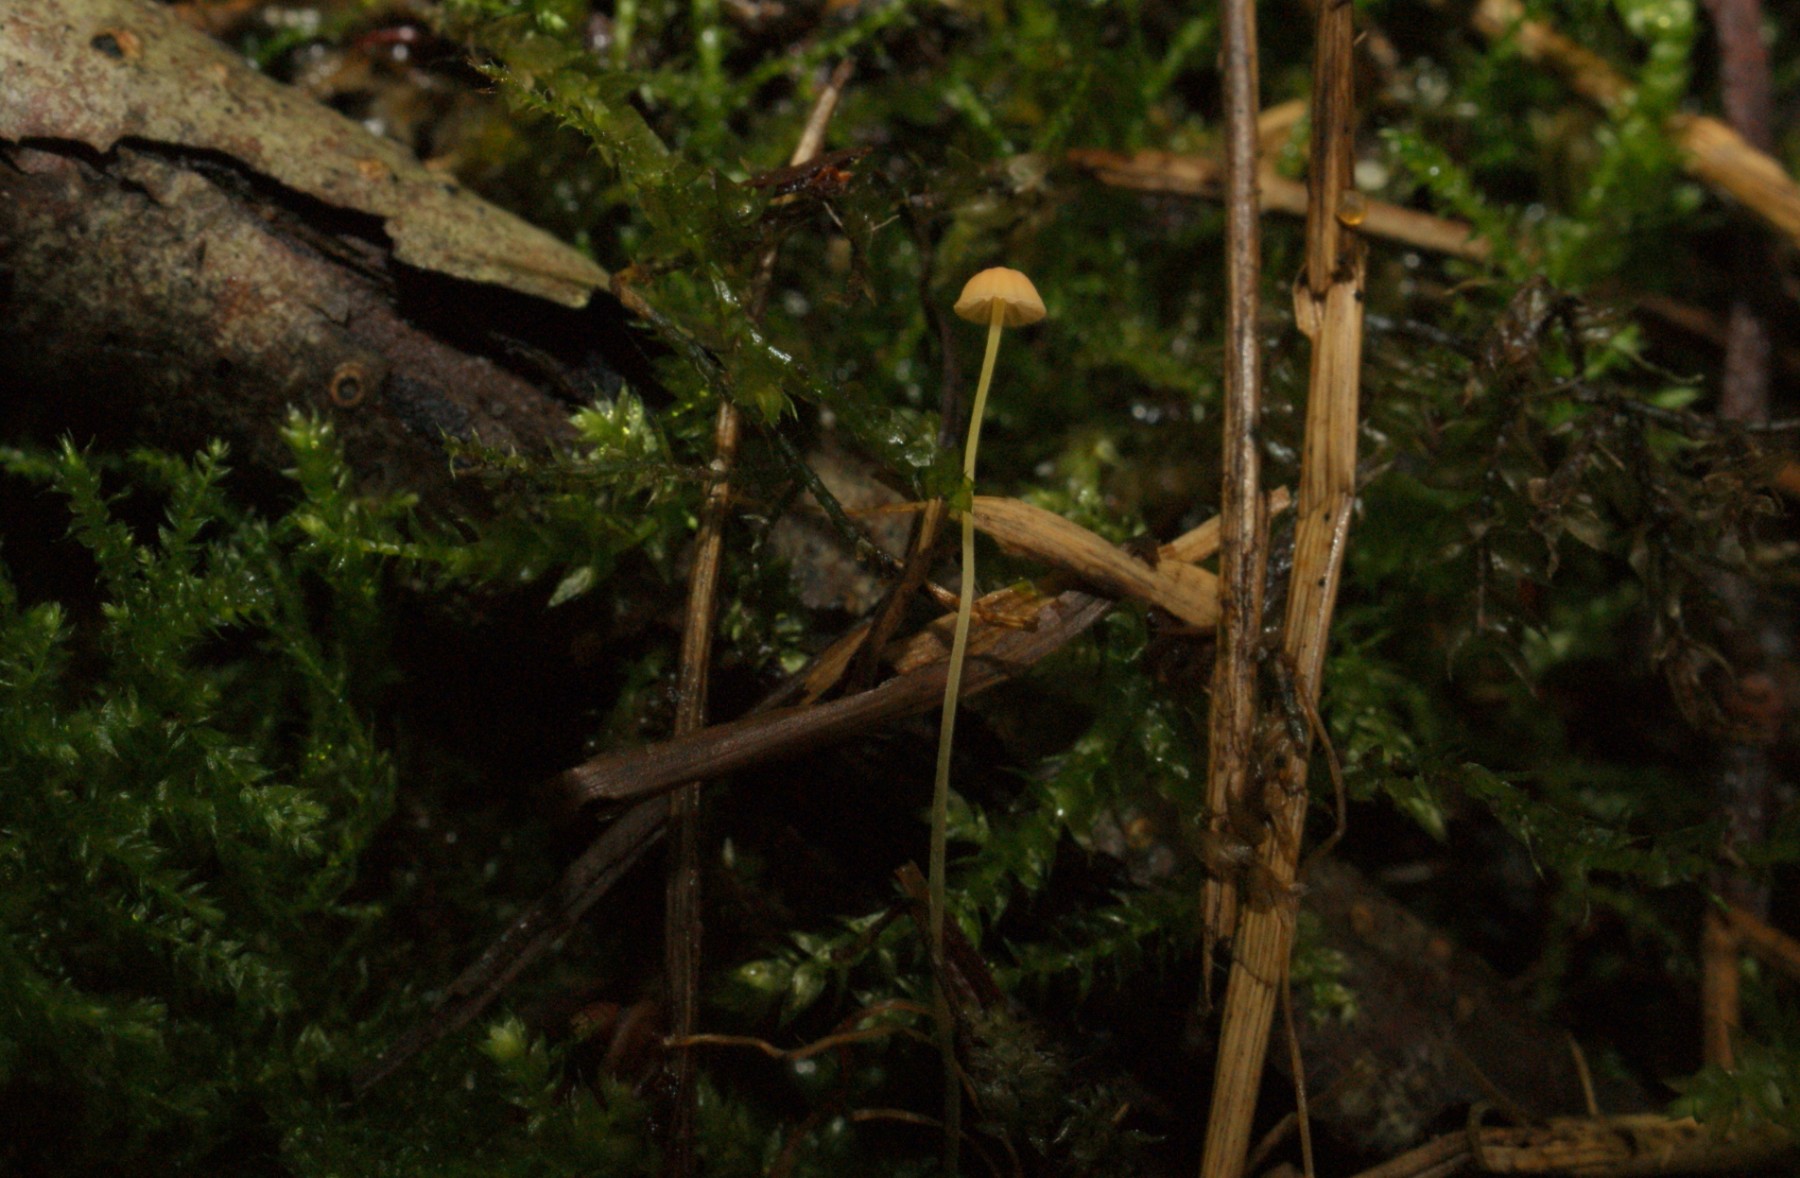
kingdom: Fungi
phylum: Basidiomycota
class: Agaricomycetes
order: Agaricales
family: Mycenaceae
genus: Mycena
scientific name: Mycena acicula
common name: orange huesvamp
